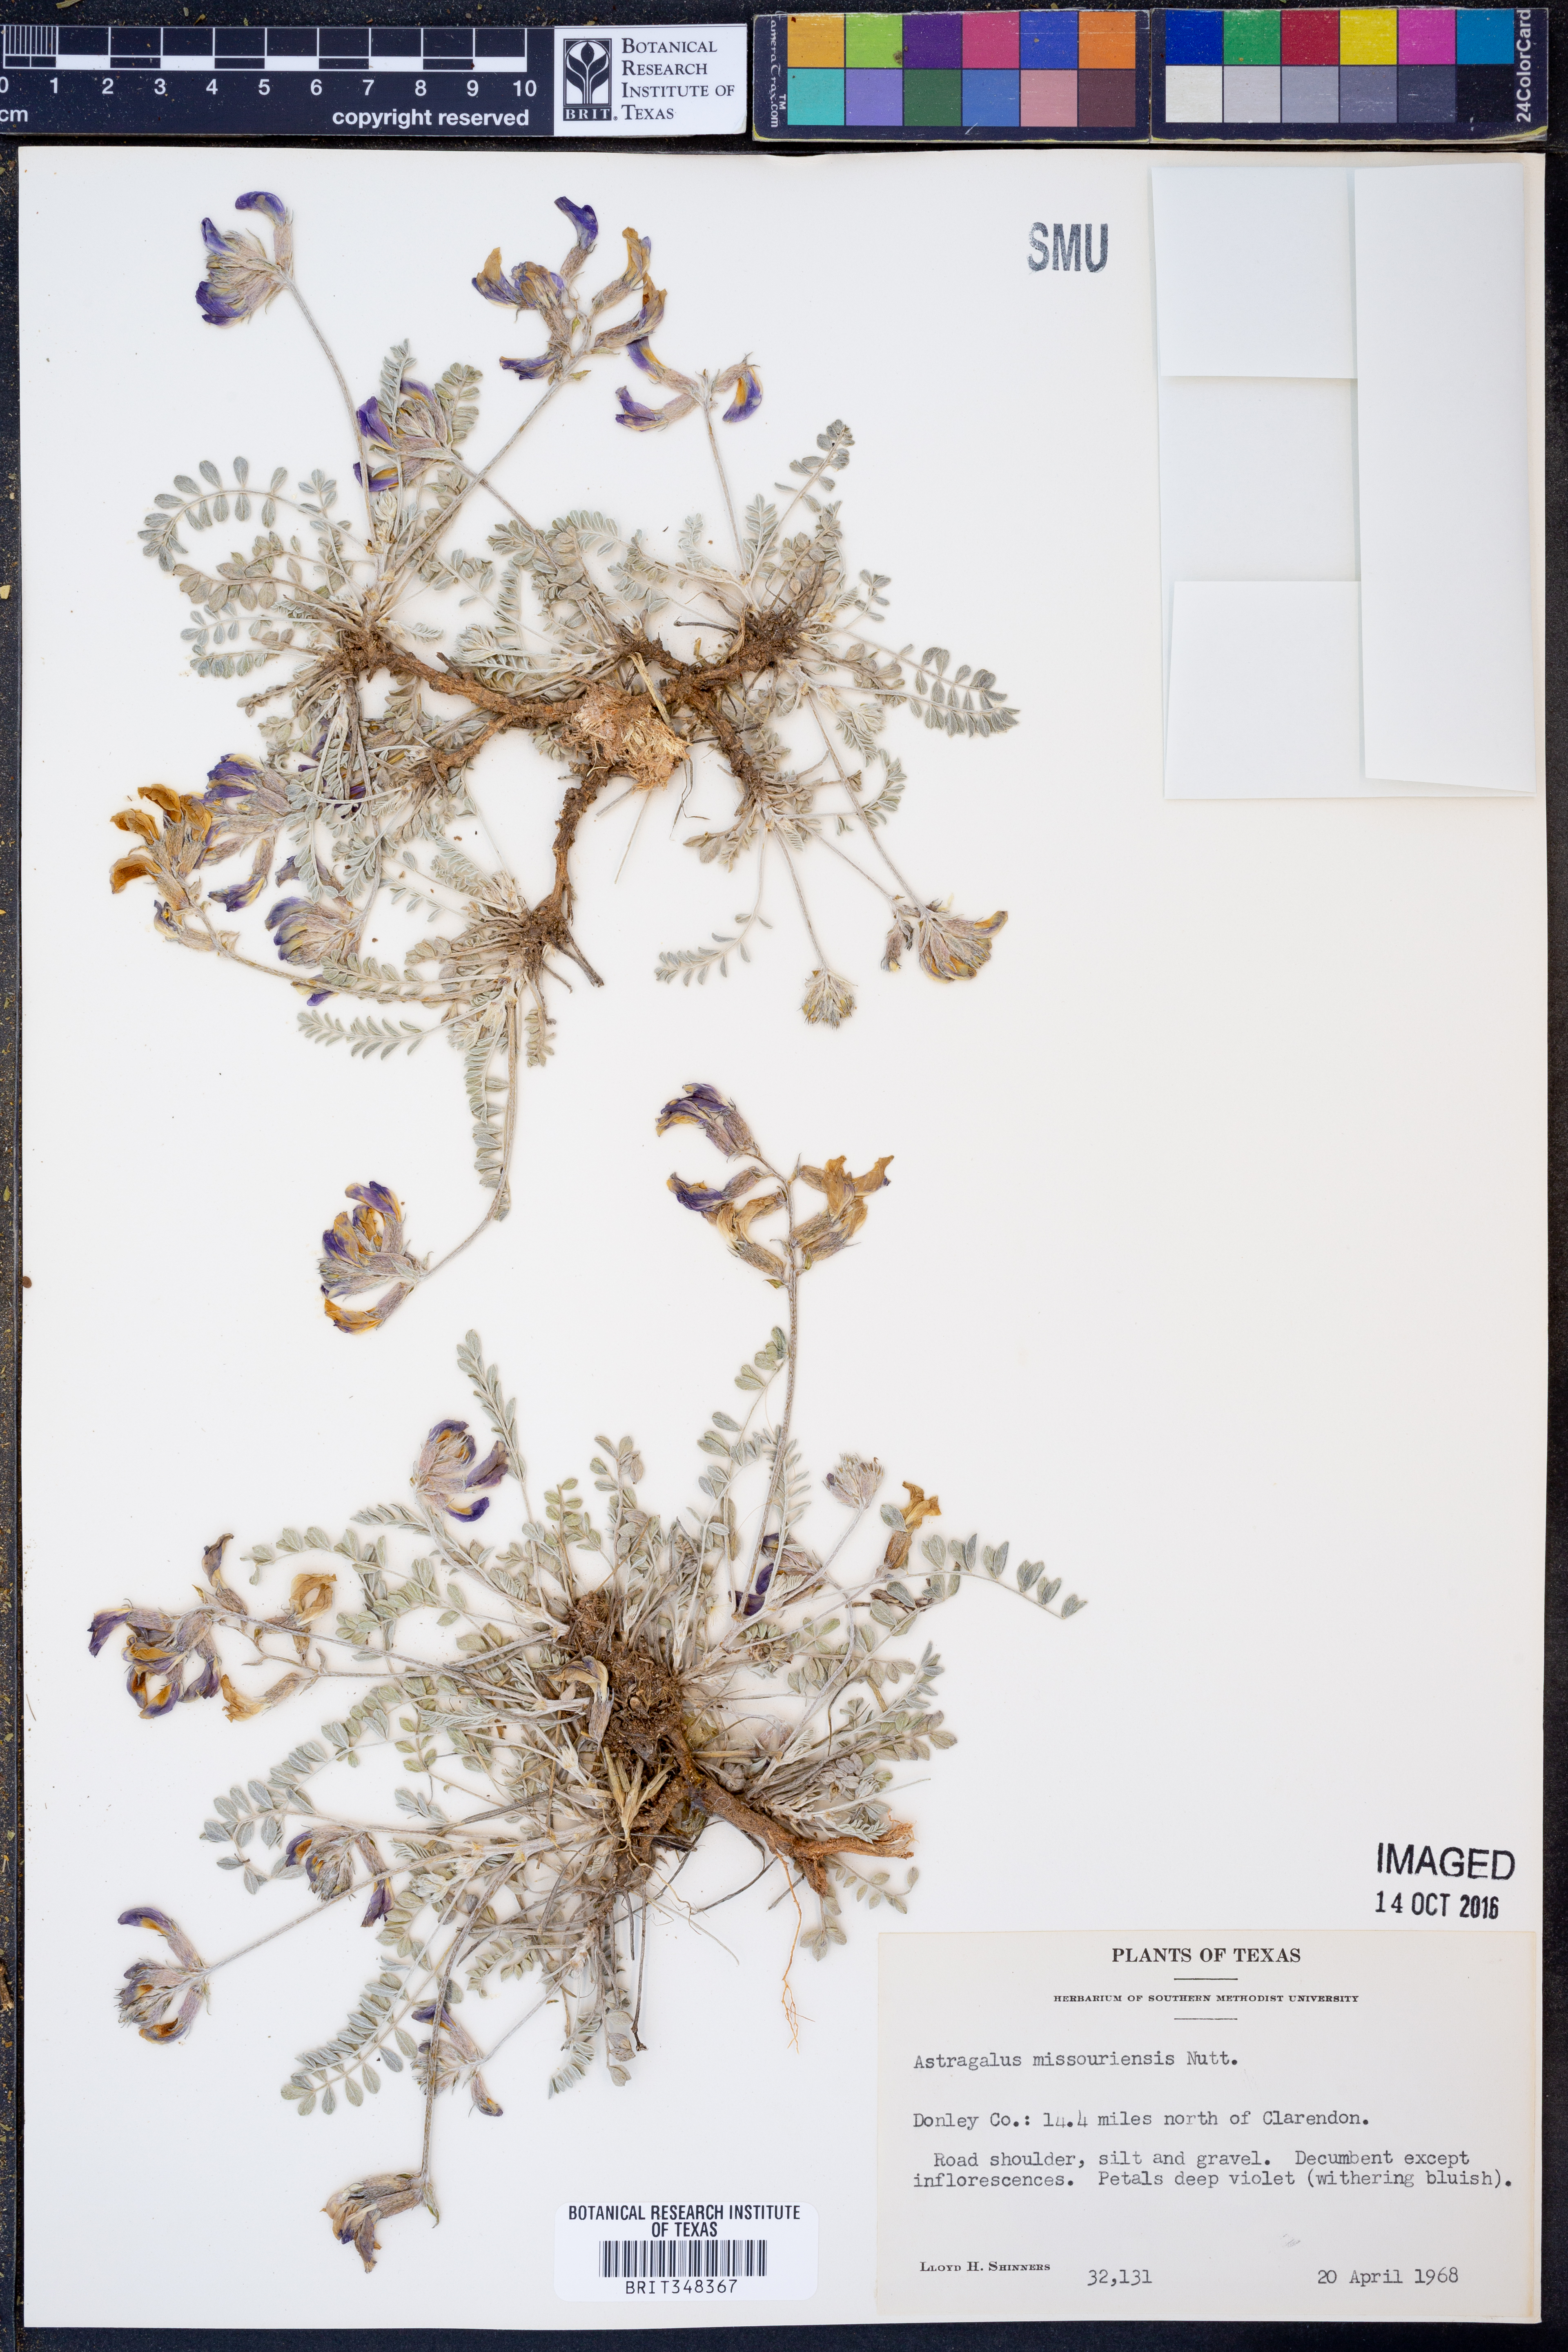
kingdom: Plantae
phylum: Tracheophyta
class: Magnoliopsida
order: Fabales
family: Fabaceae
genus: Astragalus
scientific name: Astragalus missouriensis
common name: Missouri milk-vetch
